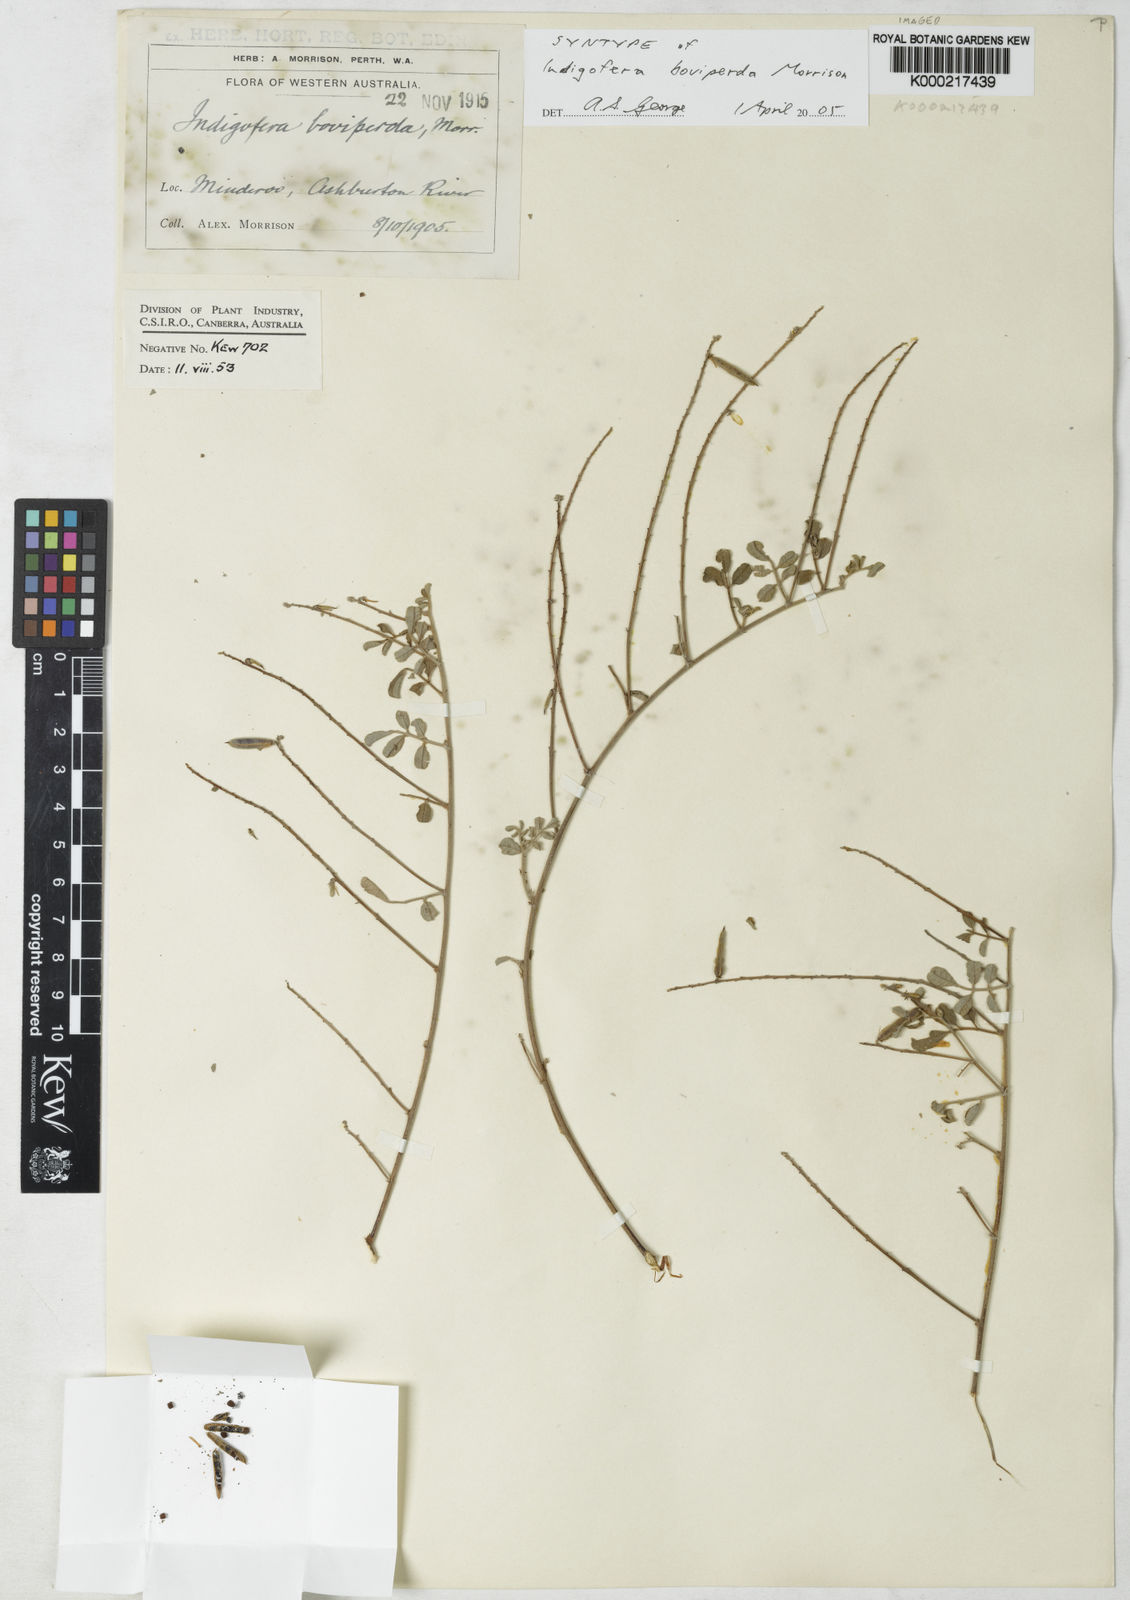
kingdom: Plantae
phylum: Tracheophyta
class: Magnoliopsida
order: Fabales
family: Fabaceae
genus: Indigofera
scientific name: Indigofera boviperda
